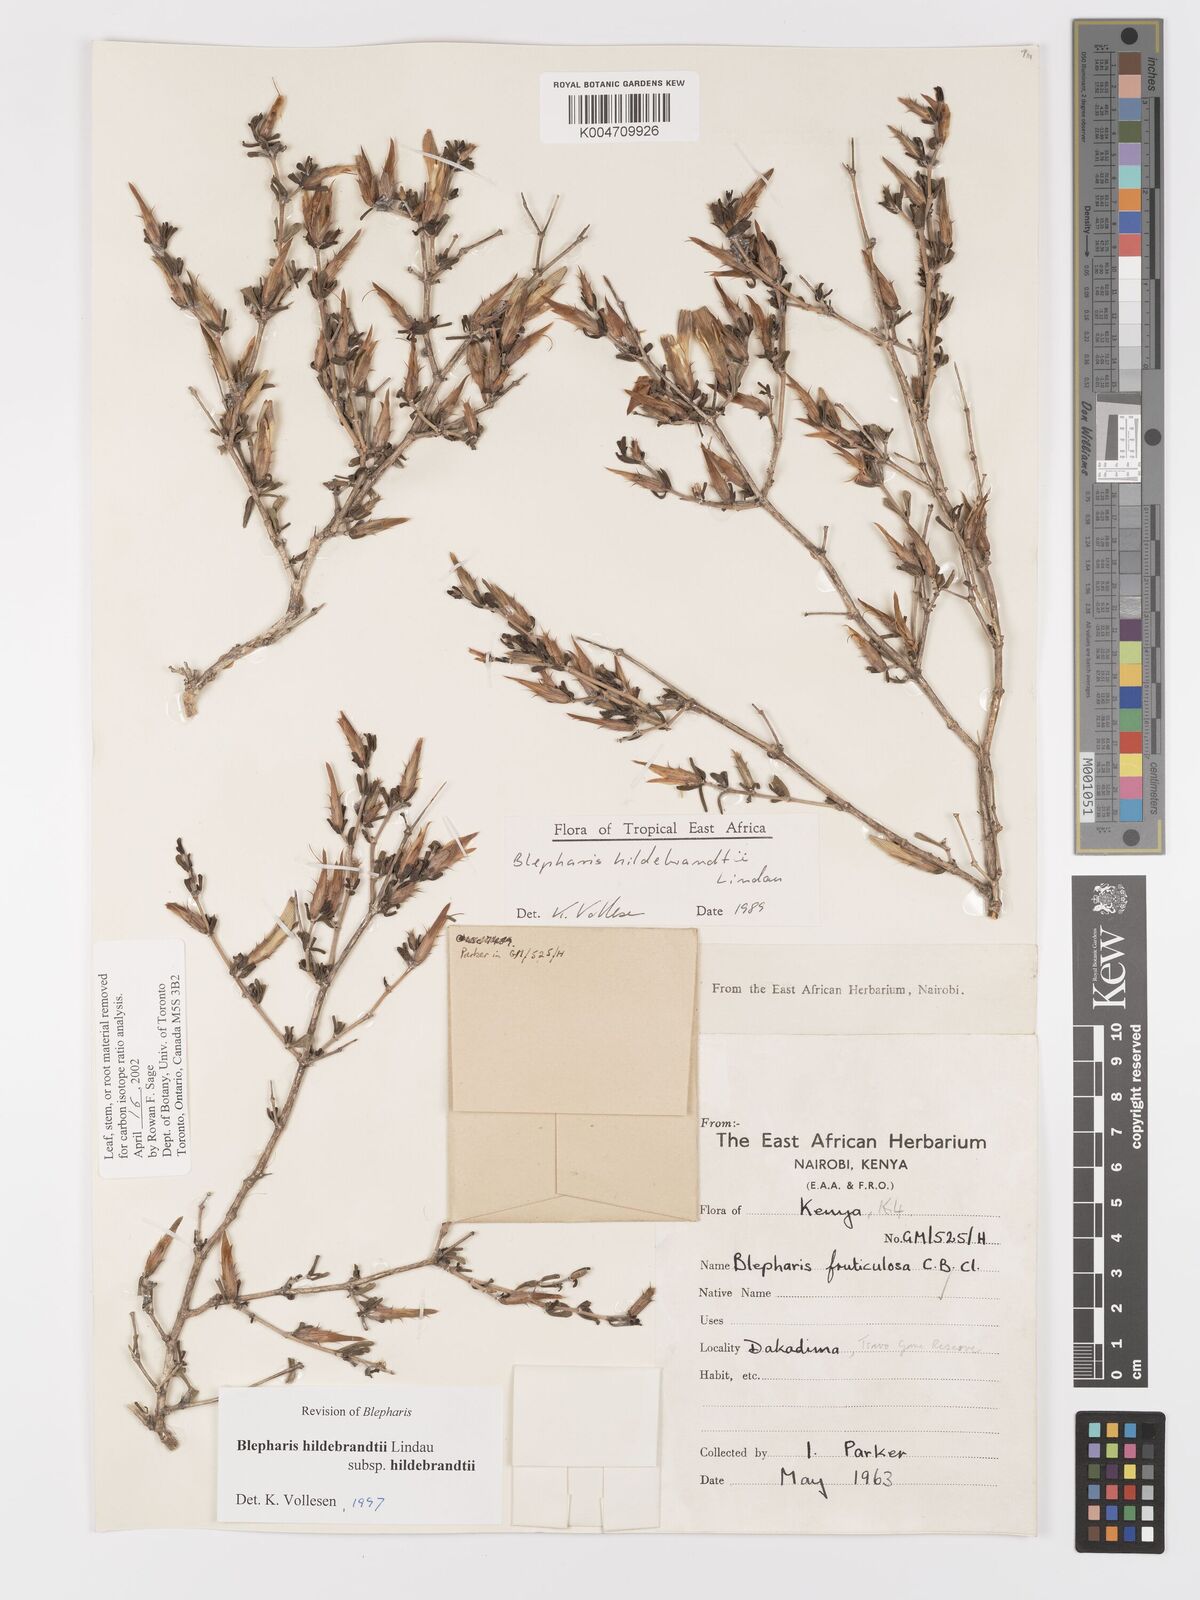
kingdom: Plantae
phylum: Tracheophyta
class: Magnoliopsida
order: Lamiales
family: Acanthaceae
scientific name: Acanthaceae
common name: Acanthaceae
